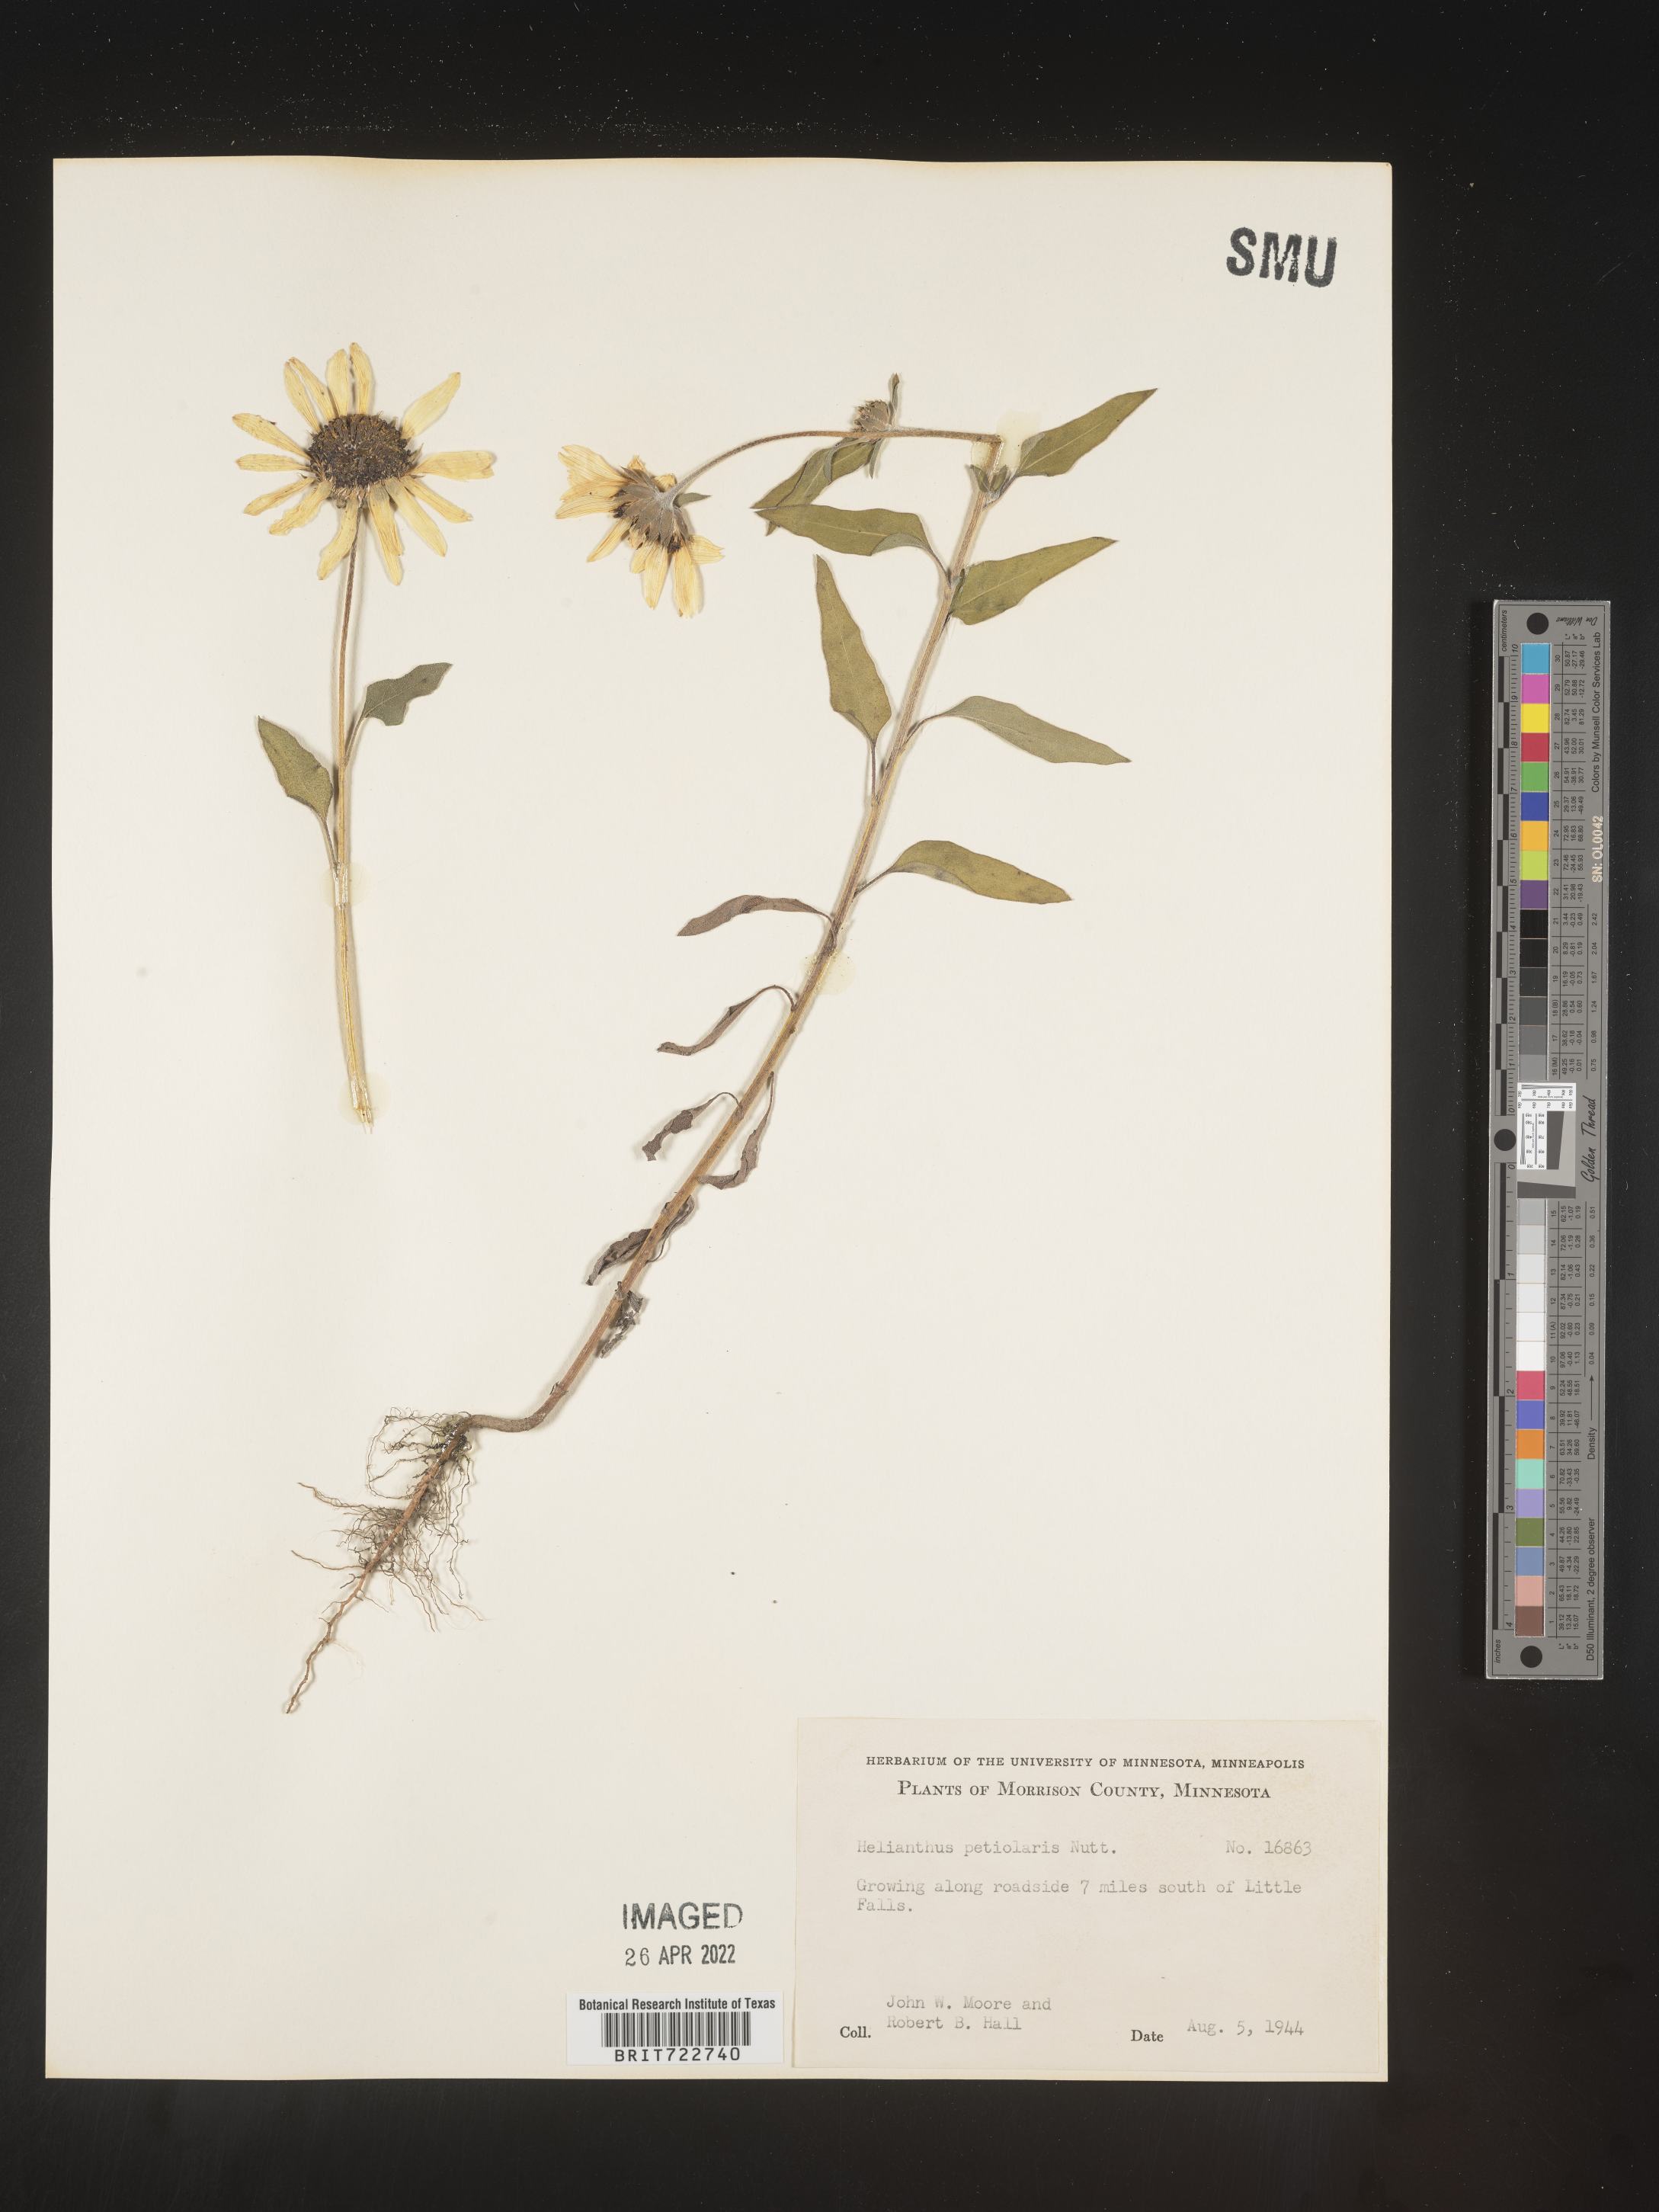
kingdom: Plantae
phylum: Tracheophyta
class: Magnoliopsida
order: Asterales
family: Asteraceae
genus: Helianthus
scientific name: Helianthus petiolaris
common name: Lesser sunflower
